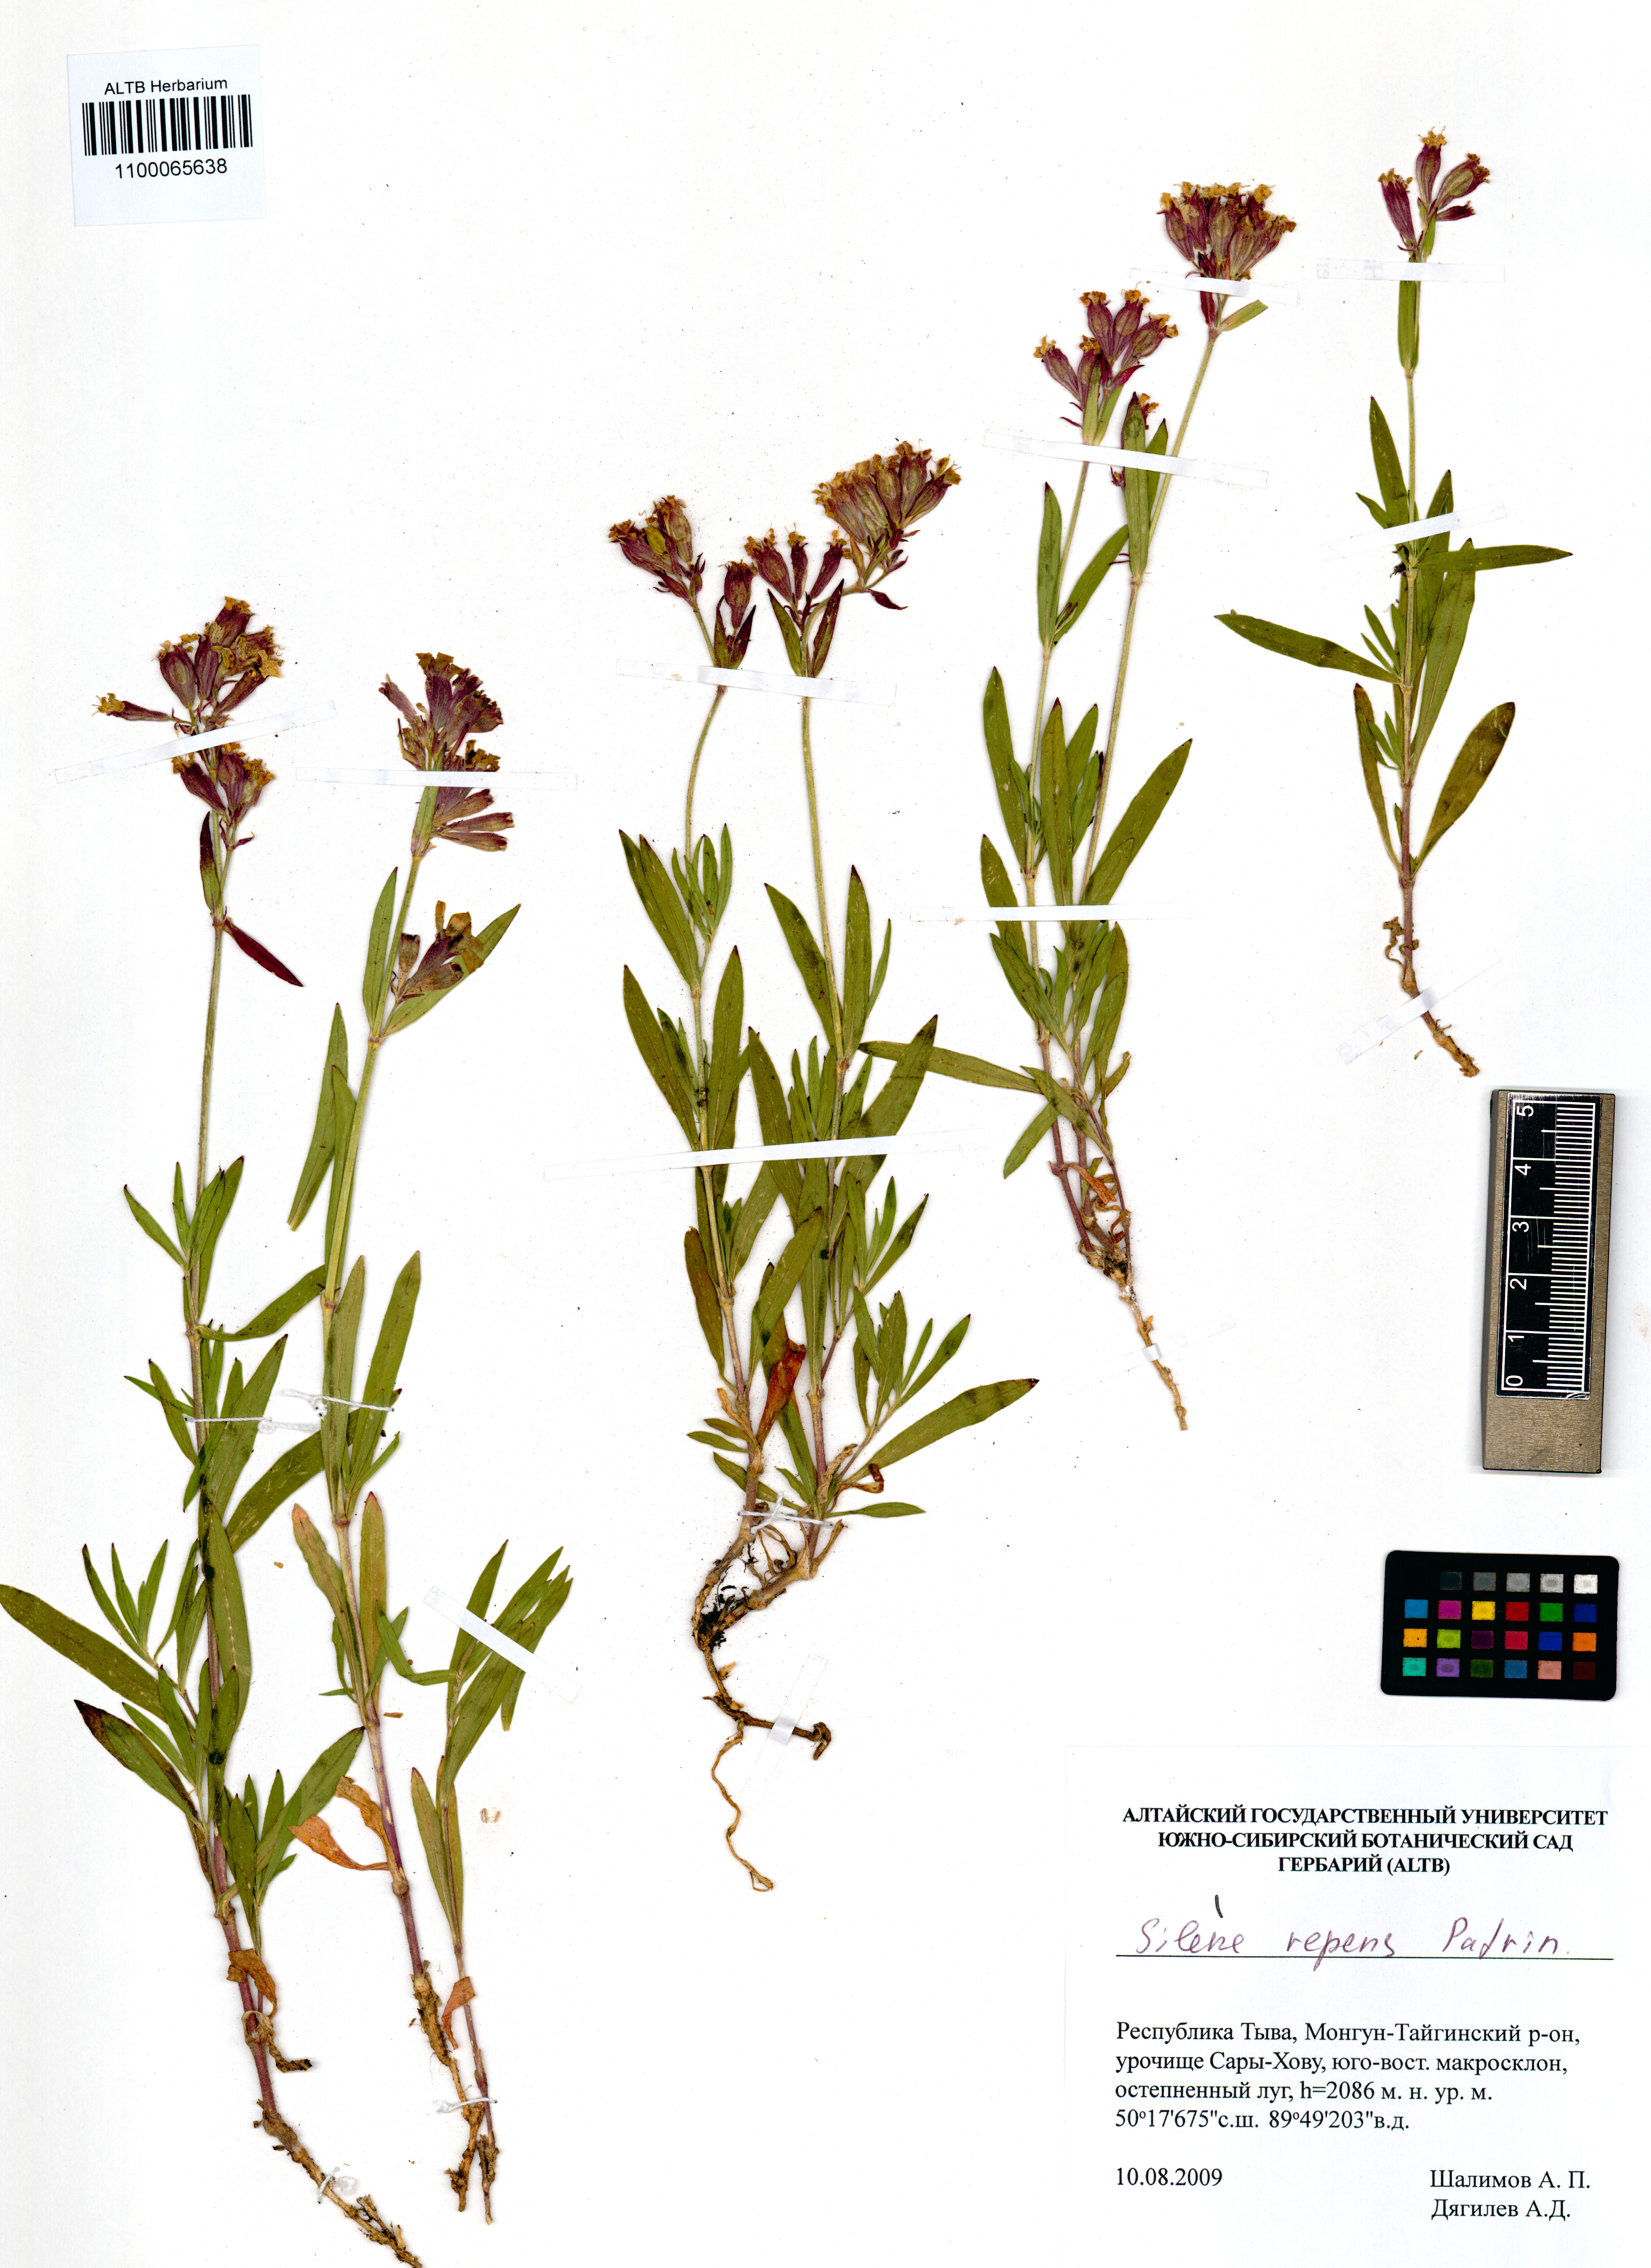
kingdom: Plantae
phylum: Tracheophyta
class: Magnoliopsida
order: Caryophyllales
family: Caryophyllaceae
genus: Silene
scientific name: Silene repens
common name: Pink campion
